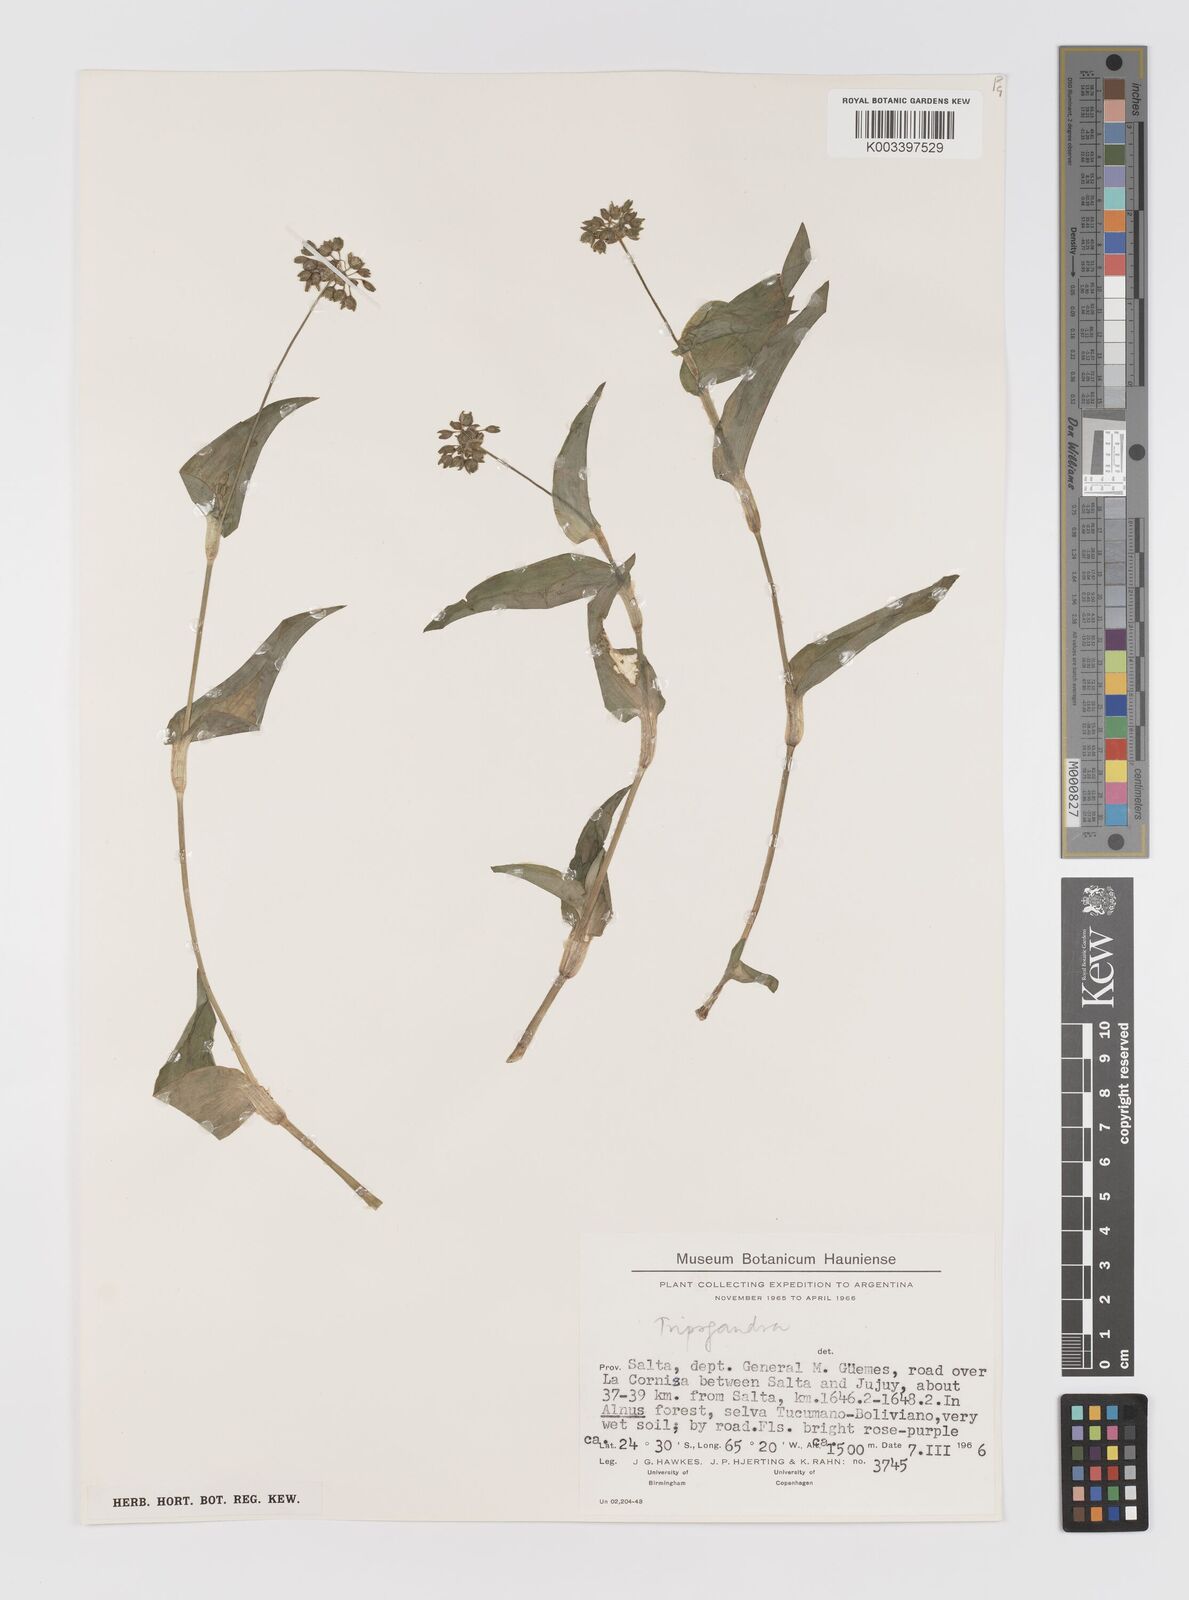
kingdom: Plantae
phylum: Tracheophyta
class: Liliopsida
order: Commelinales
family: Commelinaceae
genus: Callisia
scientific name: Callisia purpurascens
